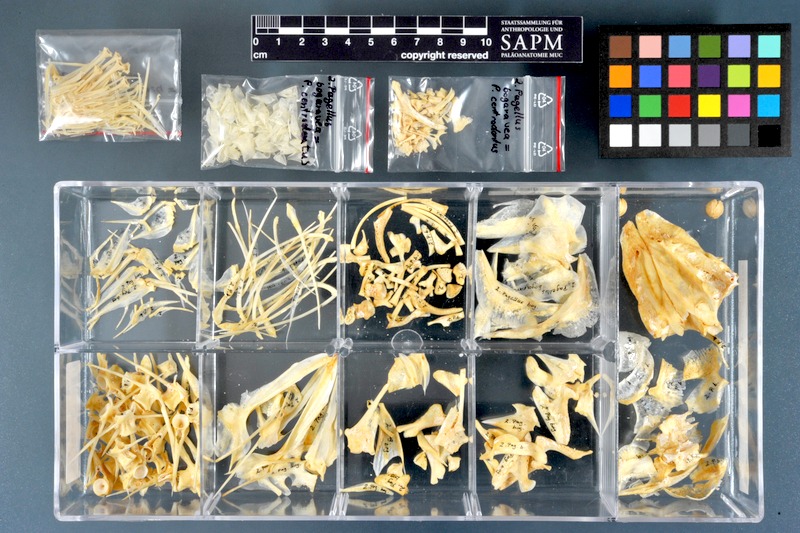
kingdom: Animalia
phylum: Chordata
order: Perciformes
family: Sparidae
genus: Pagellus
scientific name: Pagellus bogaraveo
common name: Red sea-bream
